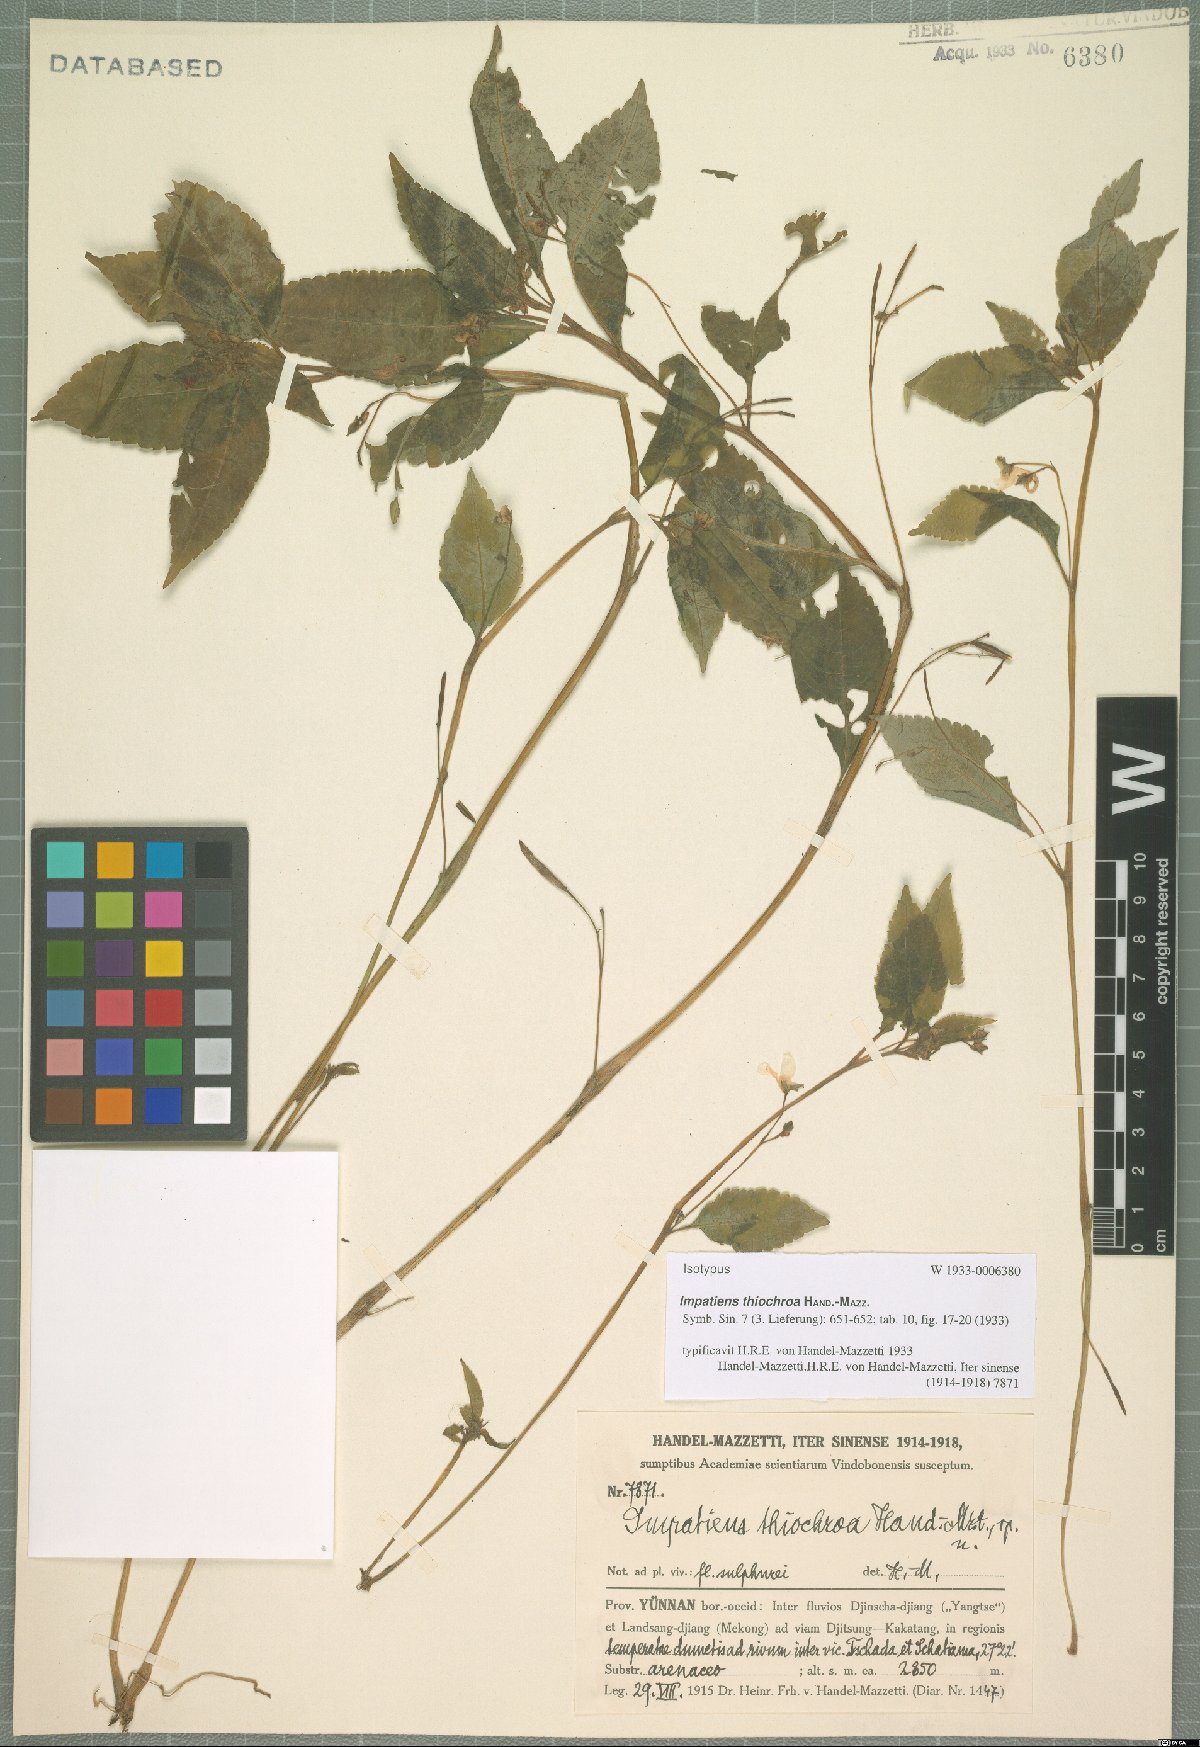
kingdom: Plantae
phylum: Tracheophyta
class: Magnoliopsida
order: Ericales
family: Balsaminaceae
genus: Impatiens
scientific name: Impatiens thiochroa
